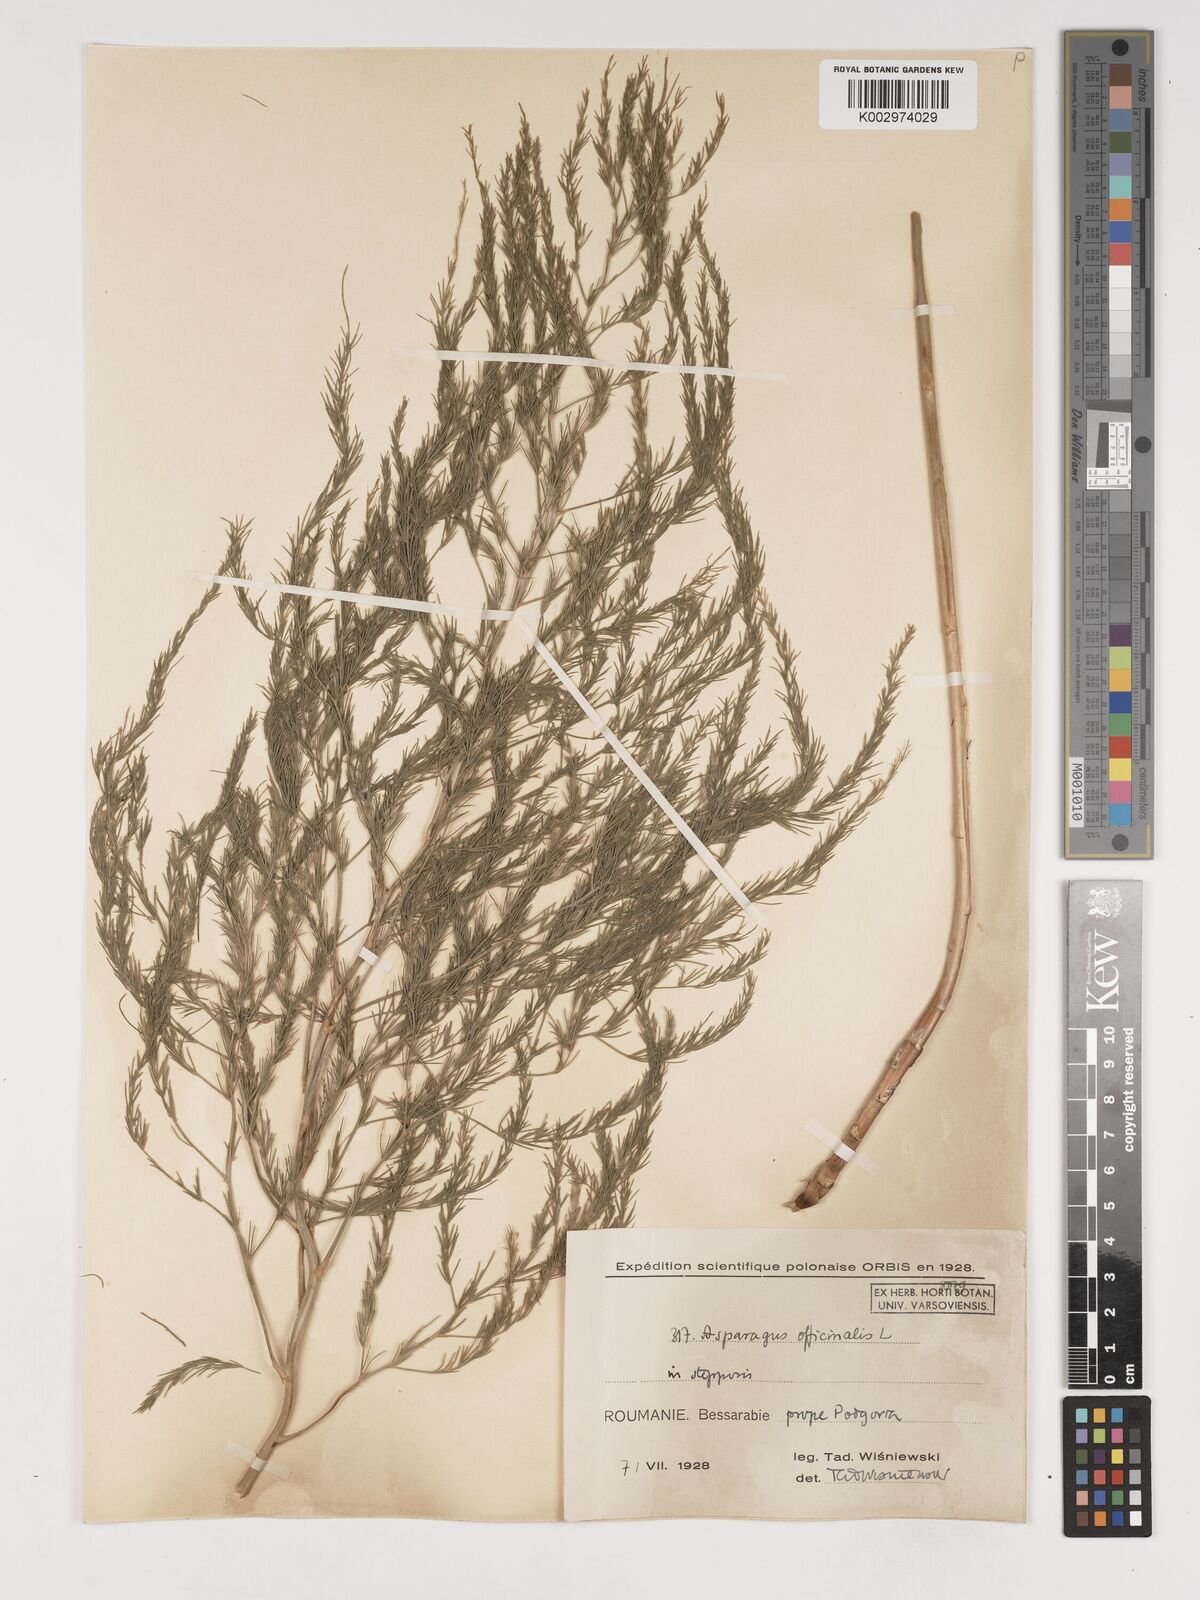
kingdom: Plantae
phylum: Tracheophyta
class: Liliopsida
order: Asparagales
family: Asparagaceae
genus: Asparagus
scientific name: Asparagus
